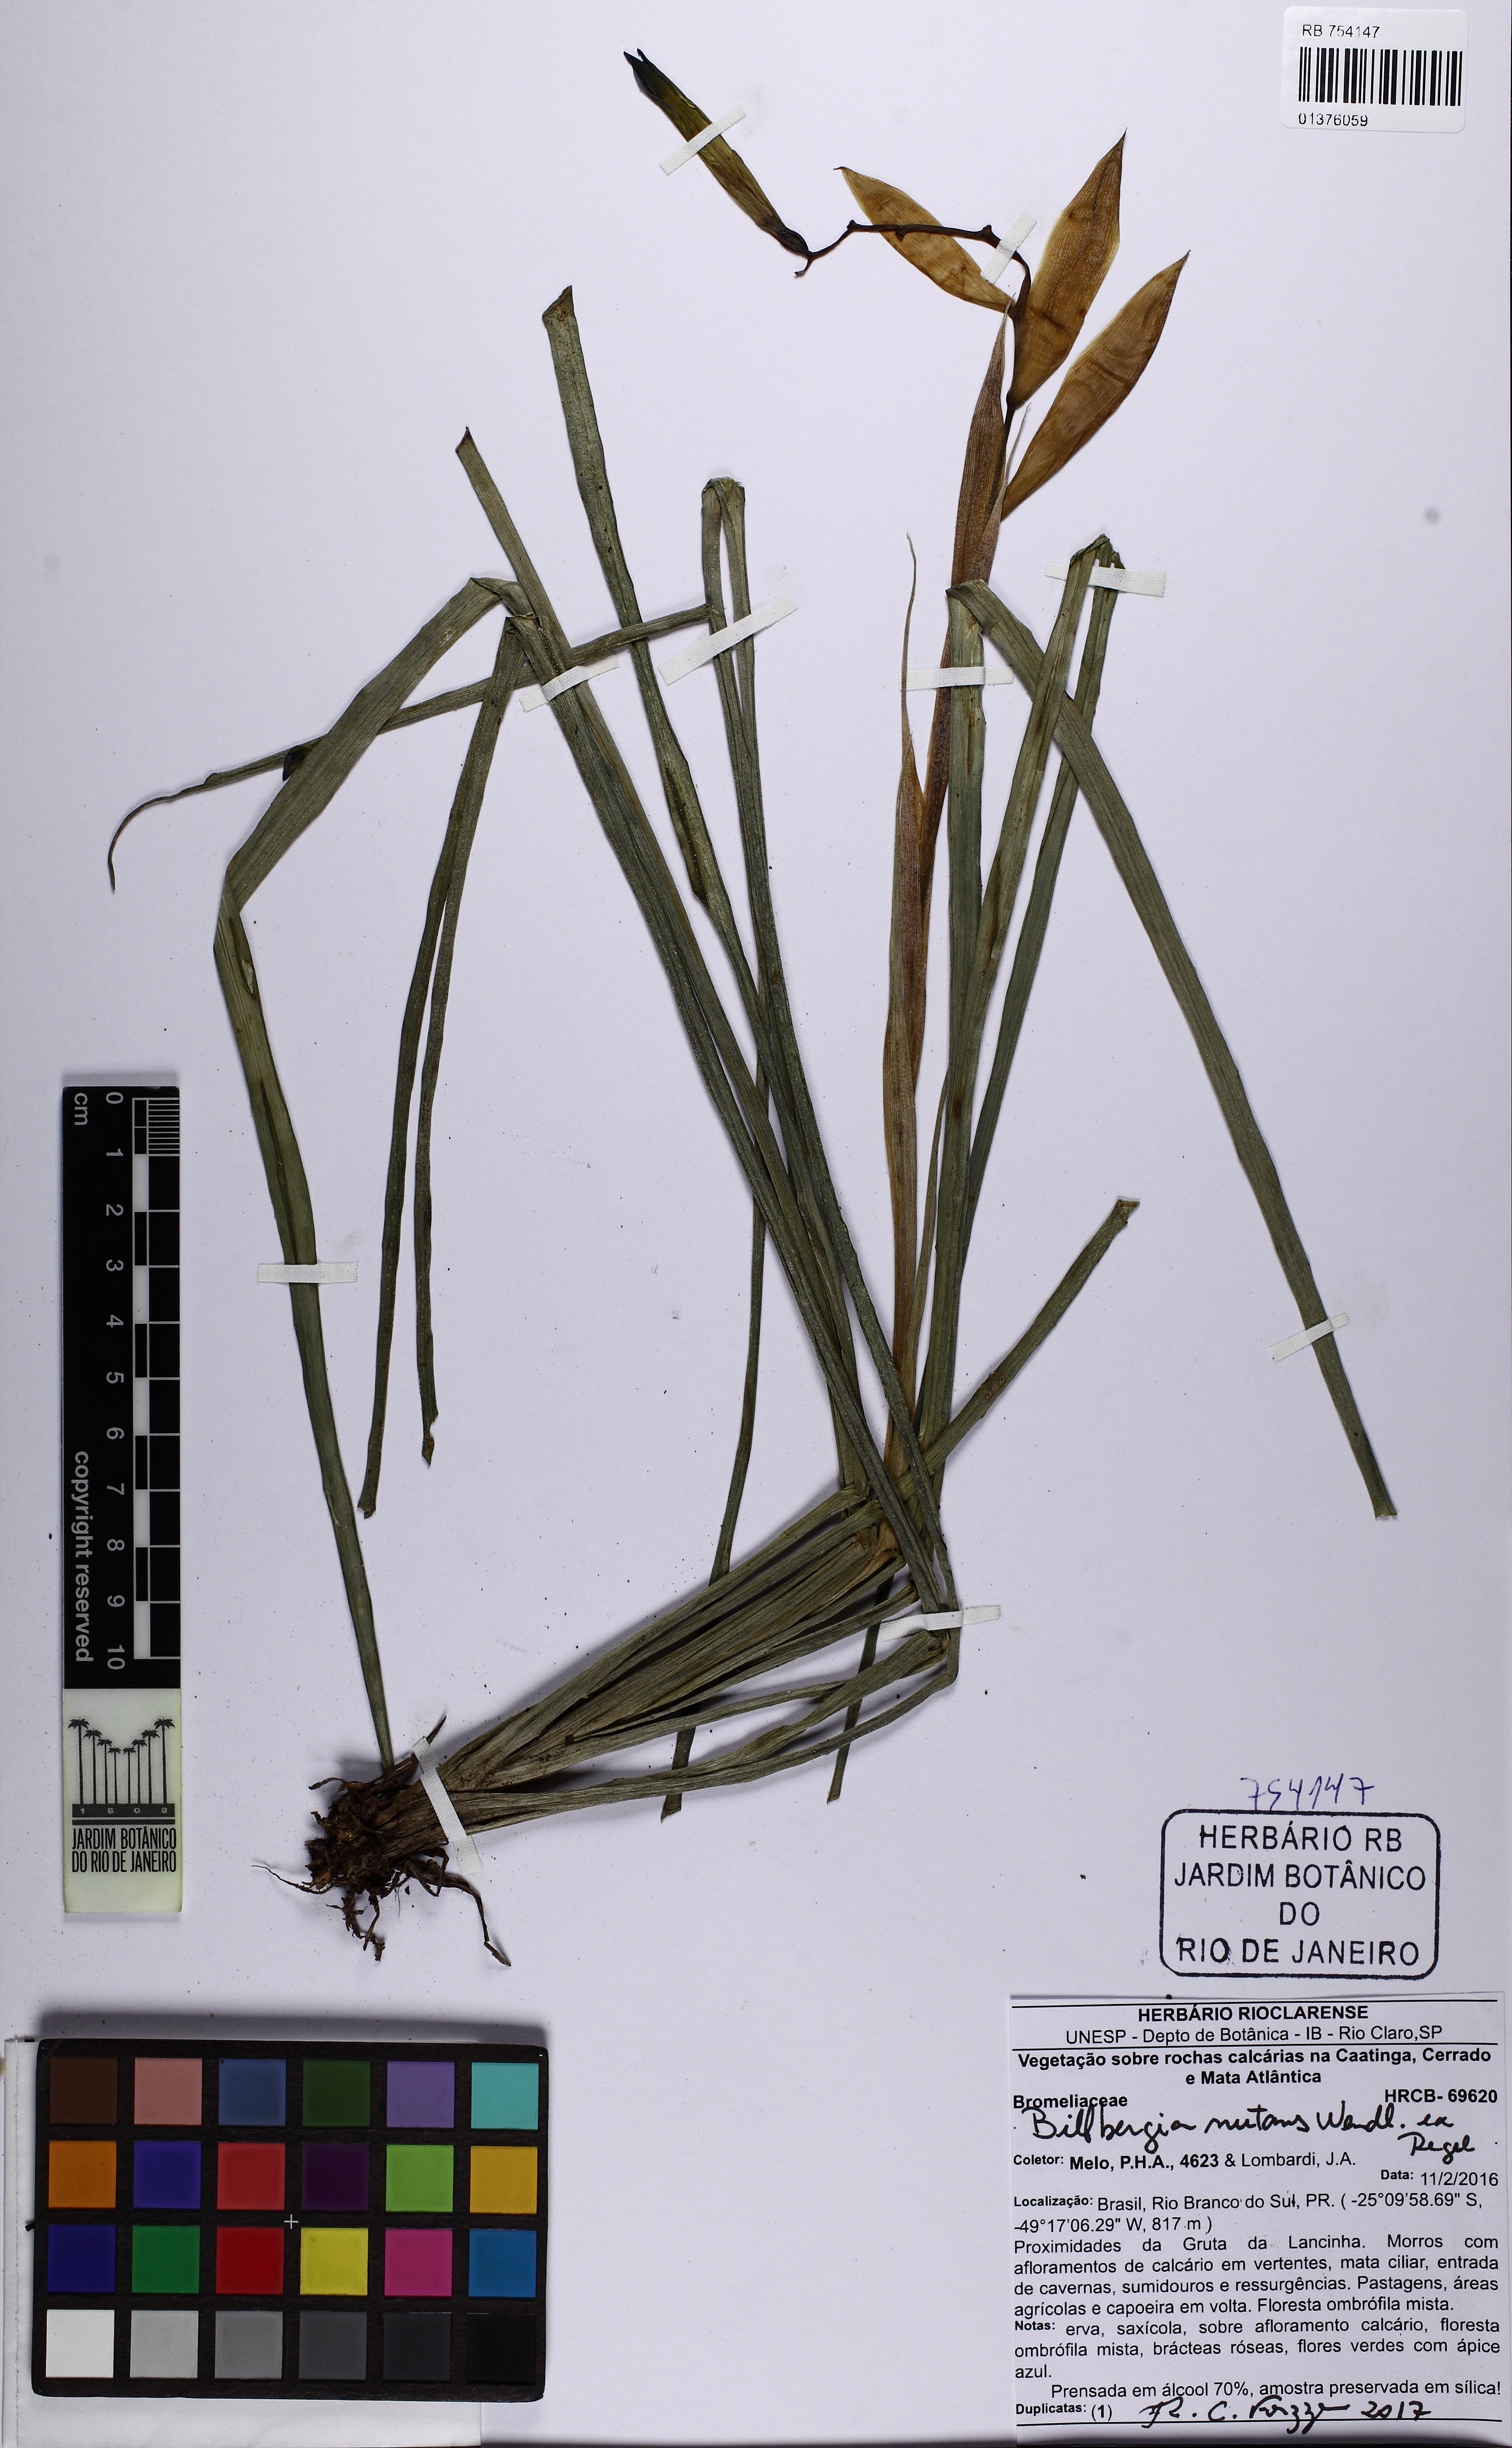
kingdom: Plantae
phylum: Tracheophyta
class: Liliopsida
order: Poales
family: Bromeliaceae
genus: Billbergia
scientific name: Billbergia nutans
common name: Friendship-plant
